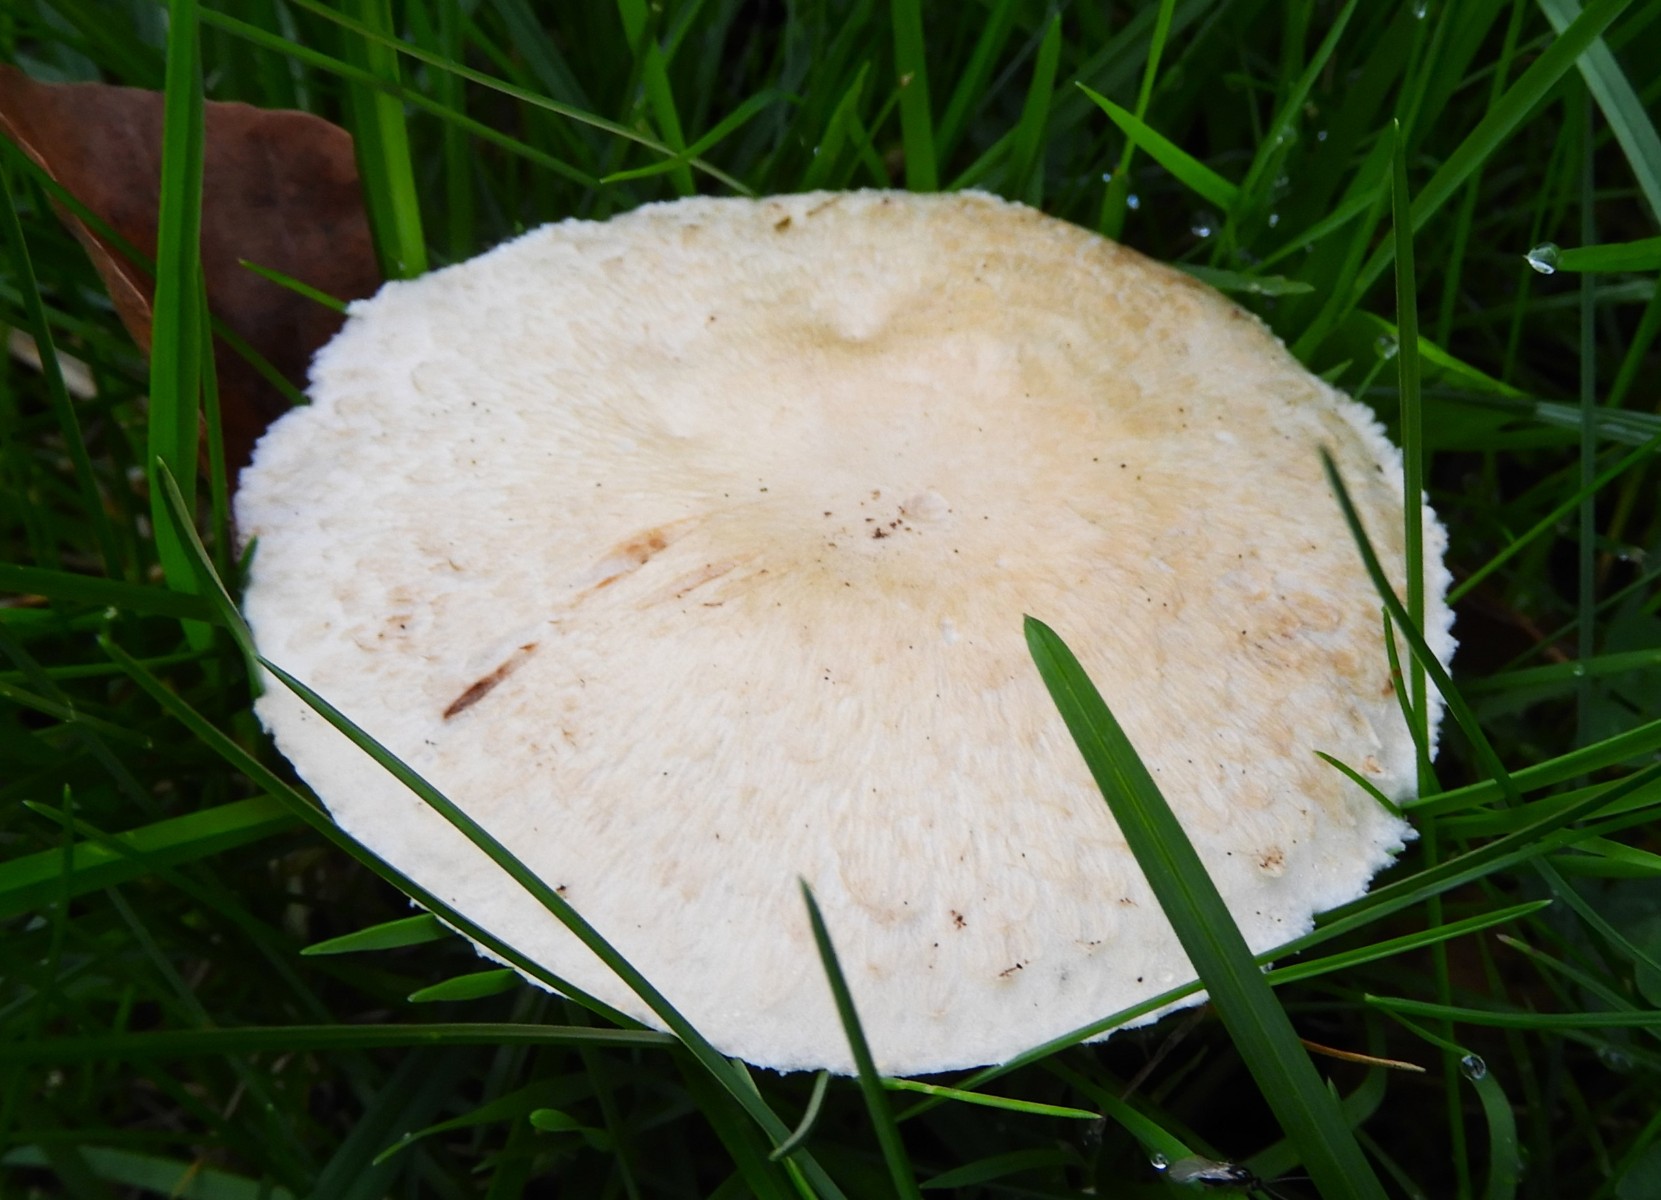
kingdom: Fungi
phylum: Basidiomycota
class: Agaricomycetes
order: Agaricales
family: Agaricaceae
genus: Agaricus
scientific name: Agaricus arvensis
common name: ager-champignon
